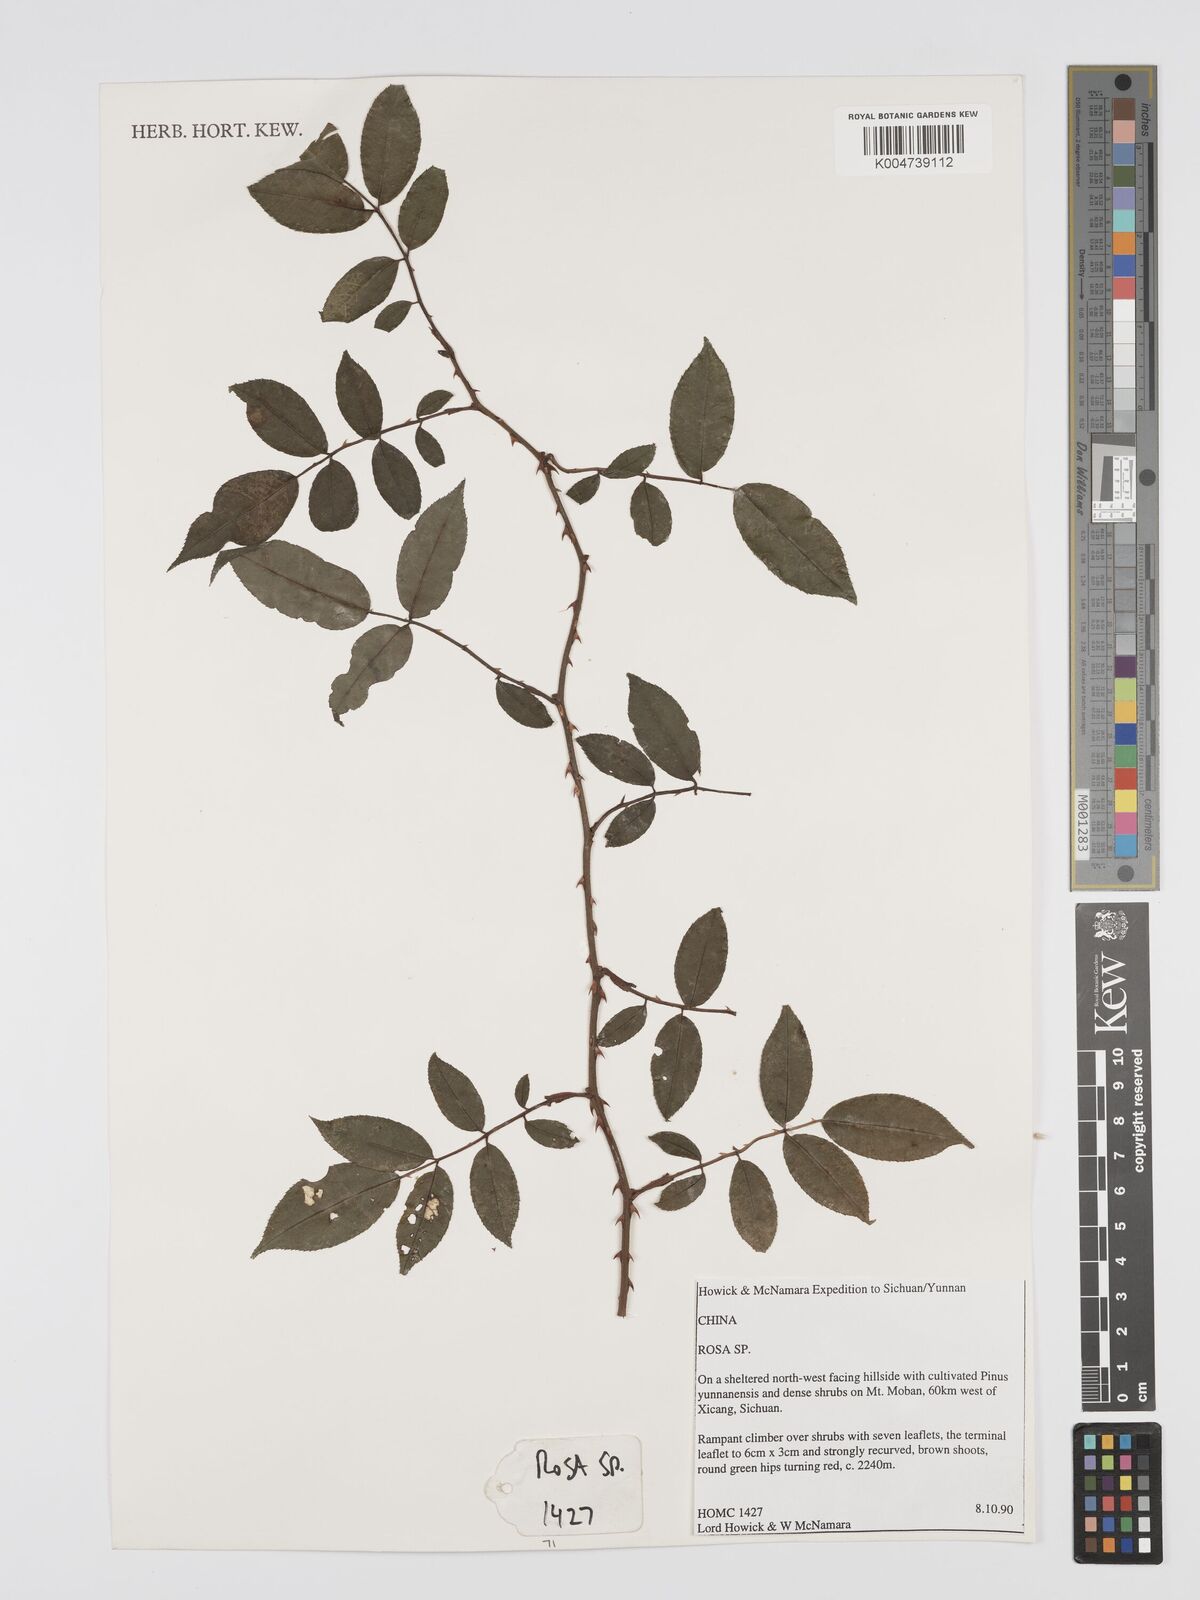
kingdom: Plantae
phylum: Tracheophyta
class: Magnoliopsida
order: Rosales
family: Rosaceae
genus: Rosa
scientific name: Rosa longicuspis
